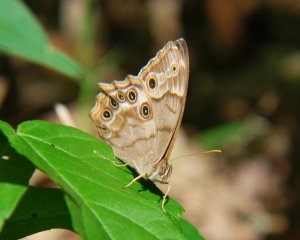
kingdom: Animalia
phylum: Arthropoda
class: Insecta
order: Lepidoptera
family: Nymphalidae
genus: Enodia
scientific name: Enodia portlandia
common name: Southern Pearly Eye
